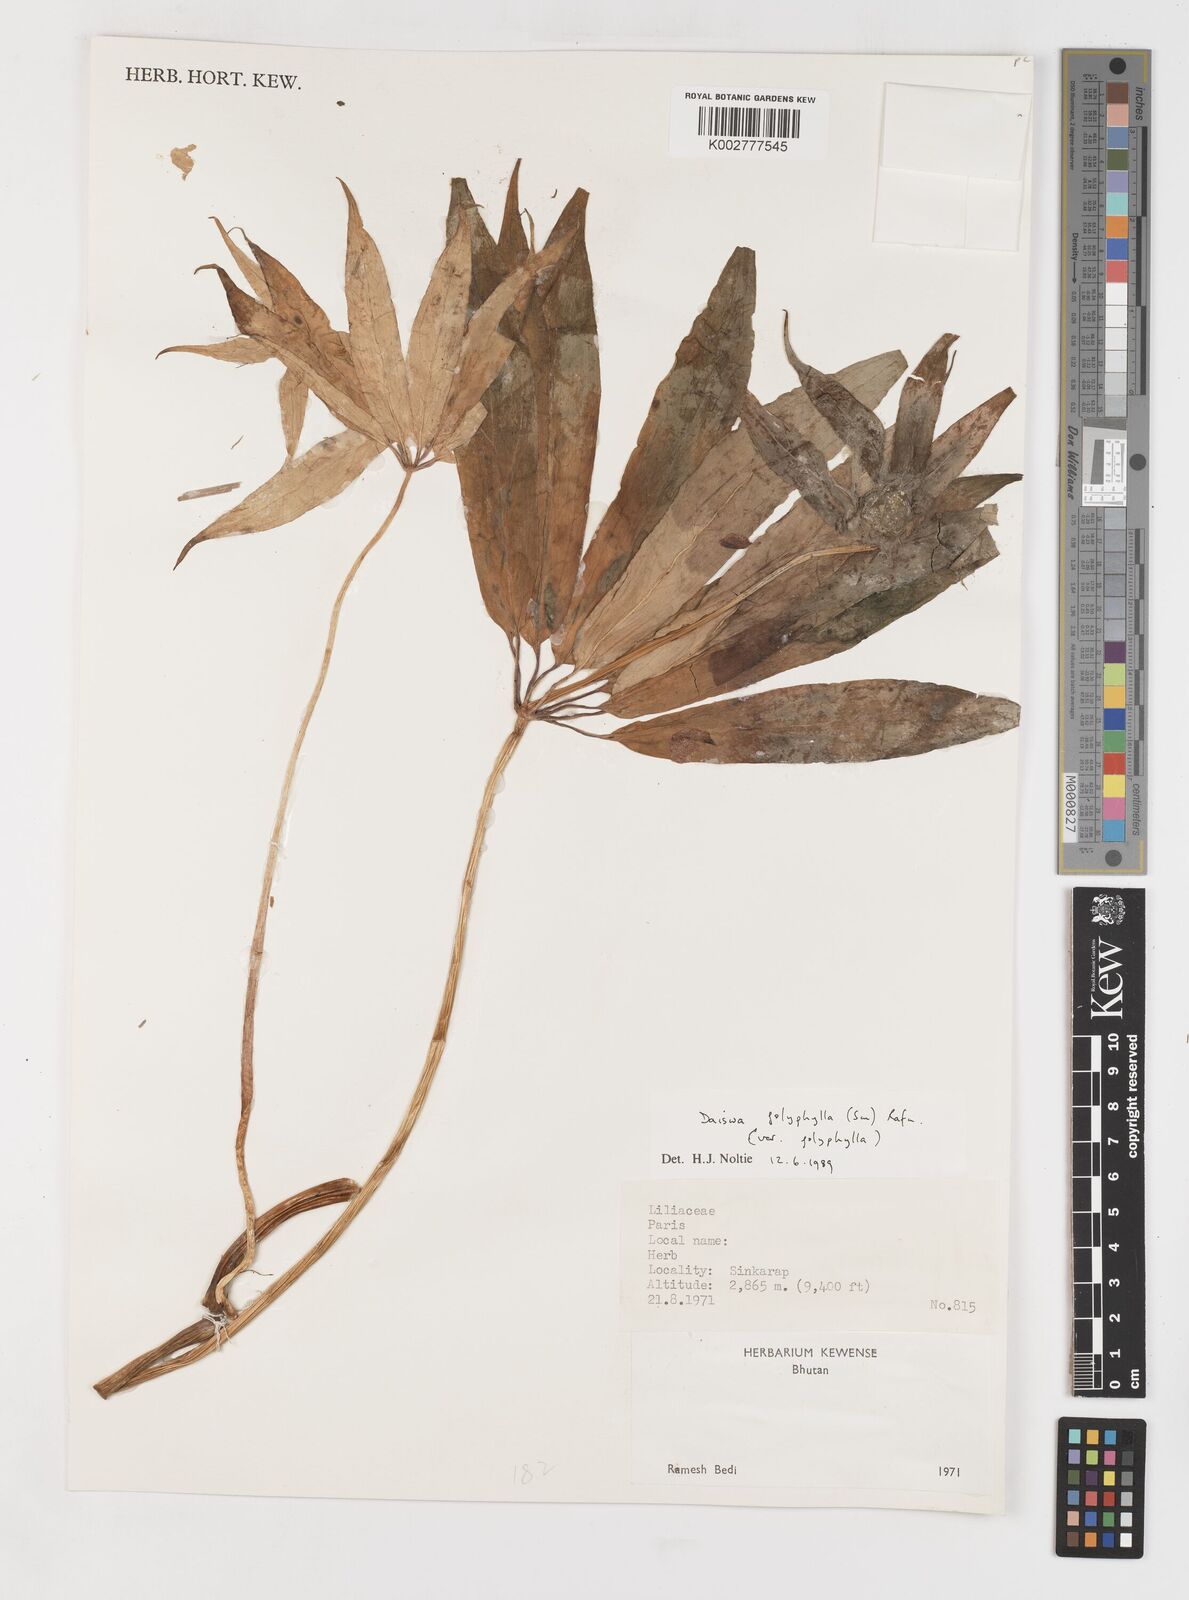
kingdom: Plantae
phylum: Tracheophyta
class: Liliopsida
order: Liliales
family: Melanthiaceae
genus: Paris
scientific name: Paris polyphylla
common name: Love apple
